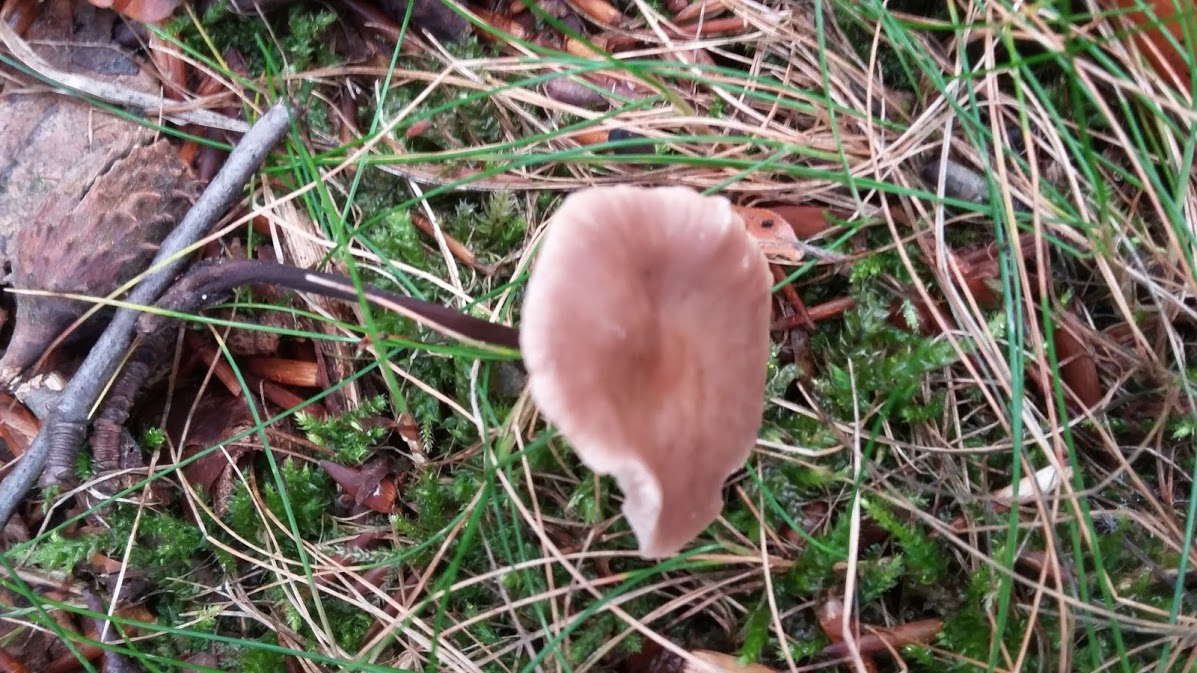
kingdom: Fungi
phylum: Basidiomycota
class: Agaricomycetes
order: Agaricales
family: Omphalotaceae
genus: Mycetinis
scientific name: Mycetinis
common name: løghat
